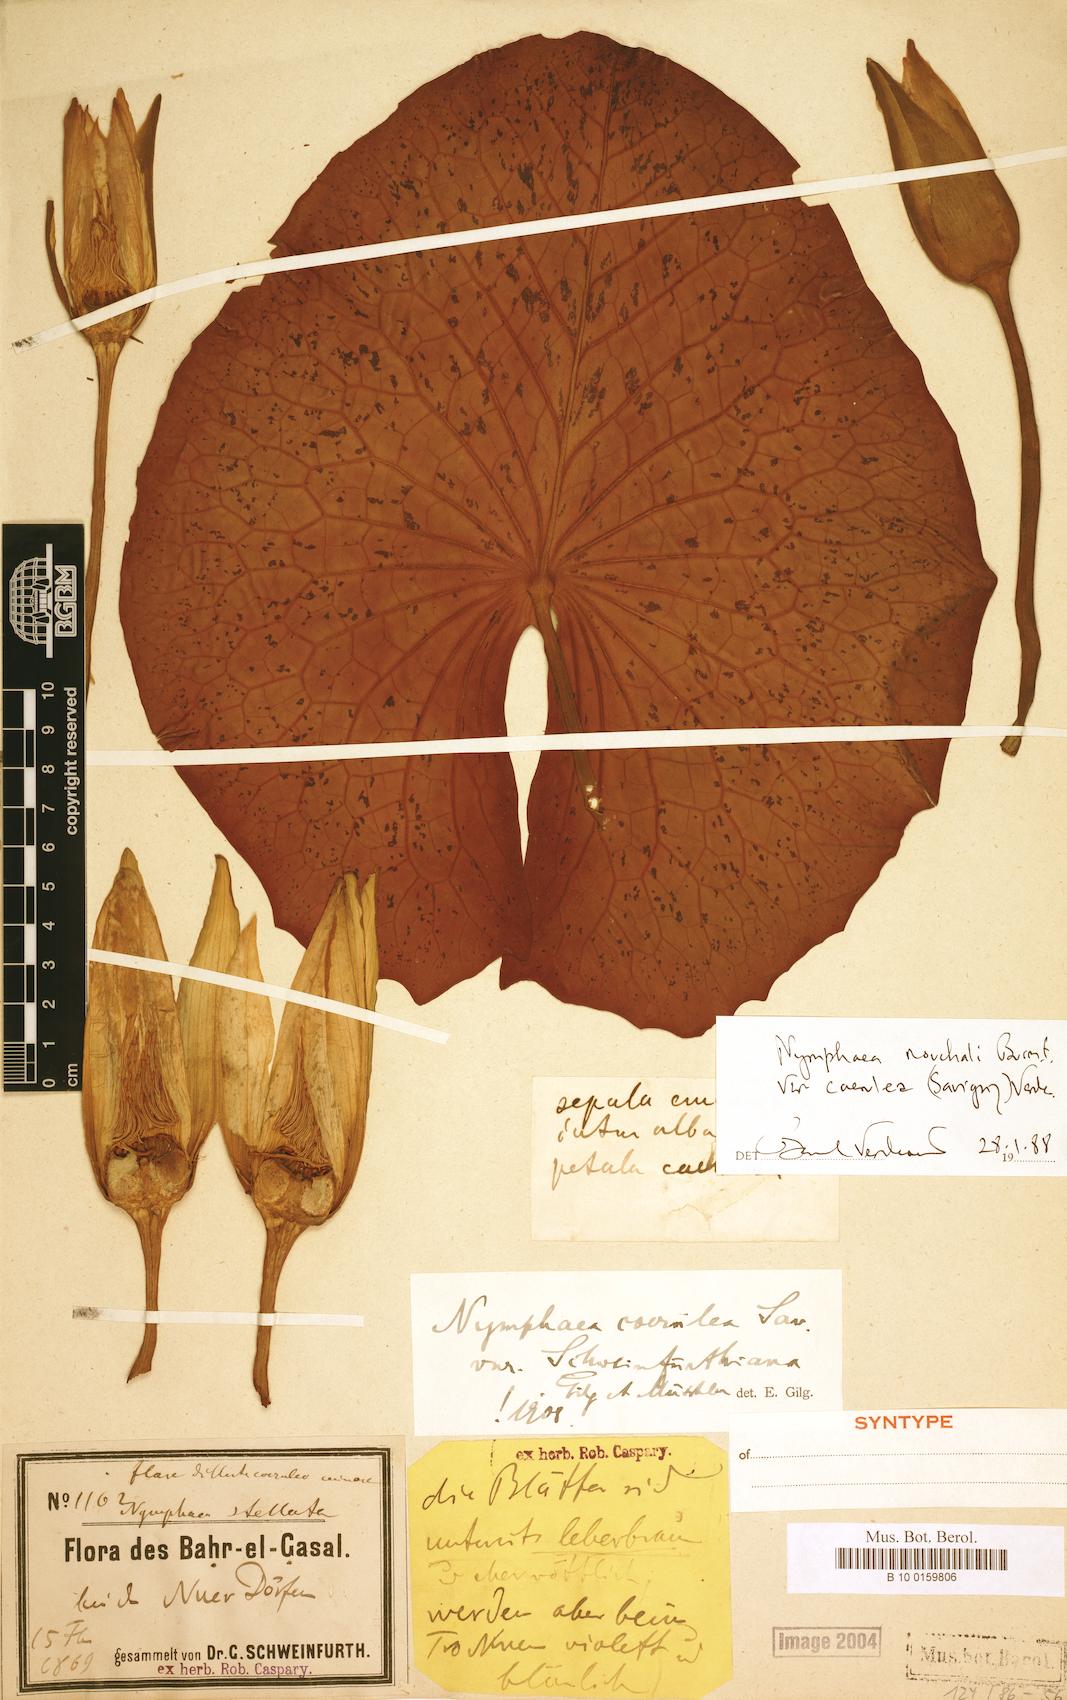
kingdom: Plantae
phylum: Tracheophyta
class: Magnoliopsida
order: Nymphaeales
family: Nymphaeaceae
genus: Nymphaea
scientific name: Nymphaea nouchali
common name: Blue lotus
